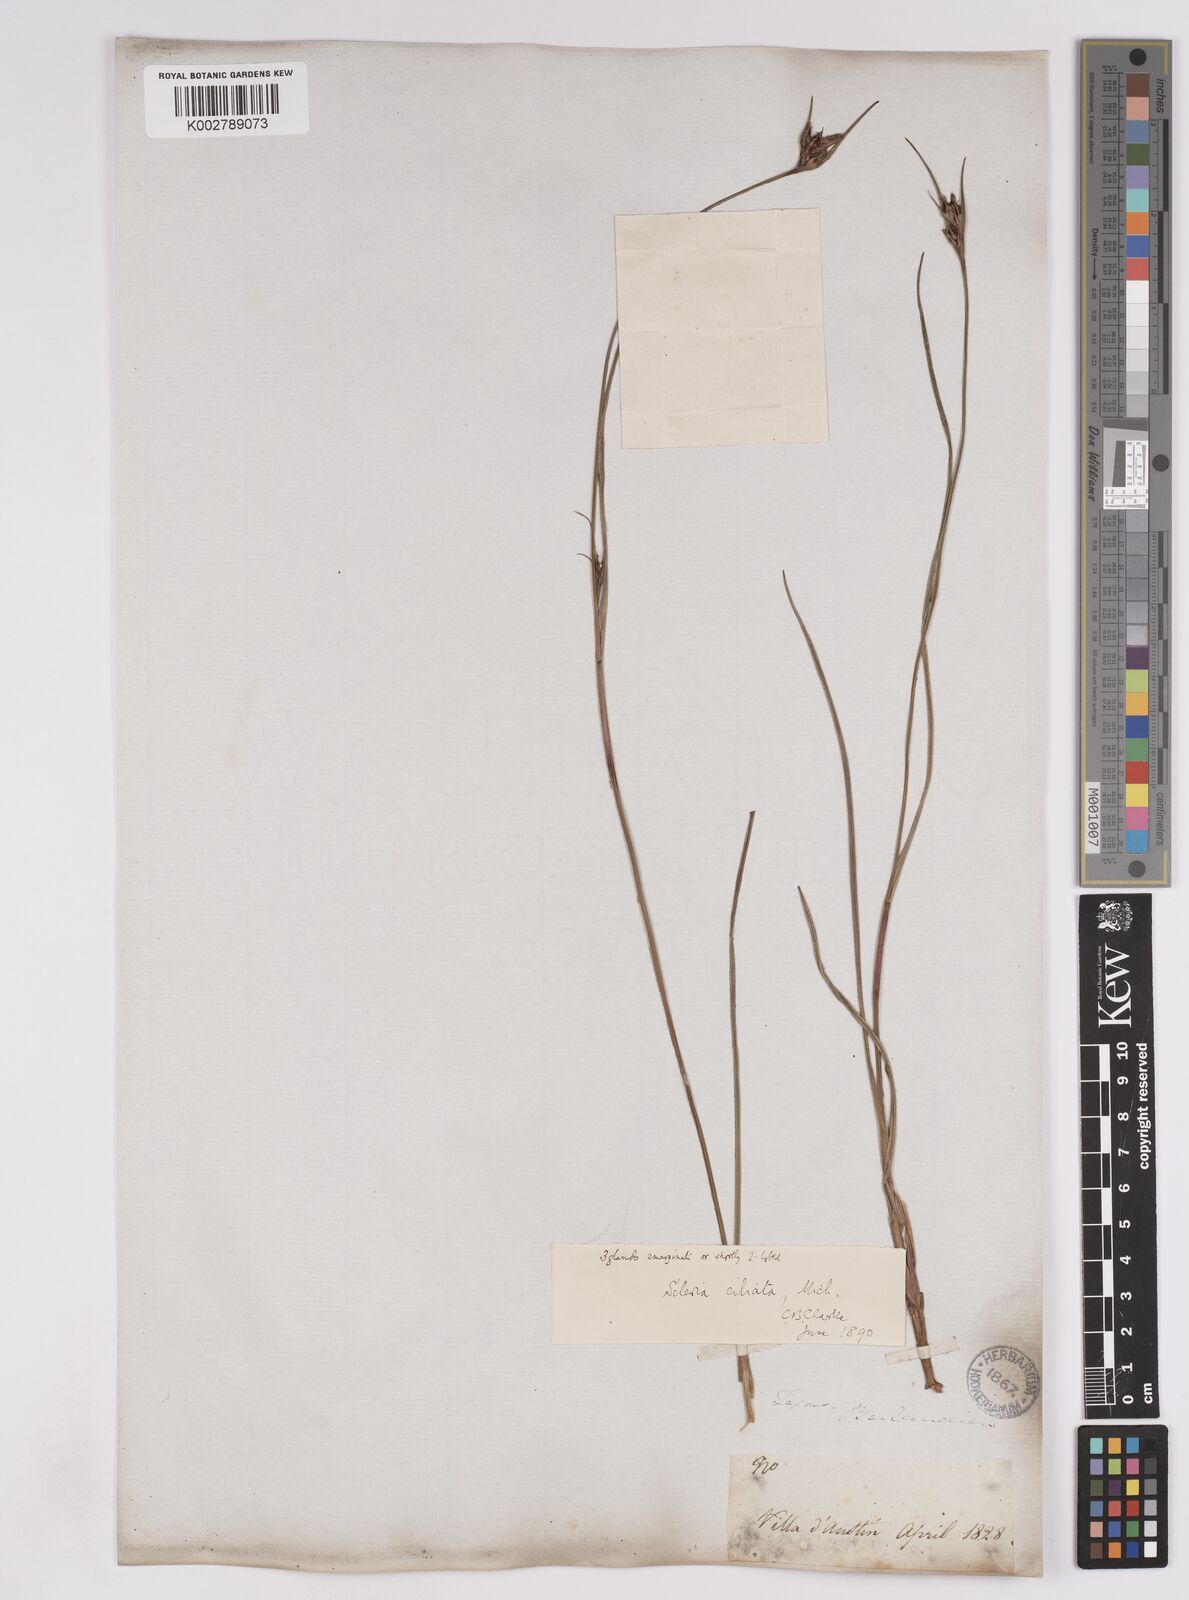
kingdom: Plantae
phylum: Tracheophyta
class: Liliopsida
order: Poales
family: Cyperaceae
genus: Scleria
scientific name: Scleria ciliata
